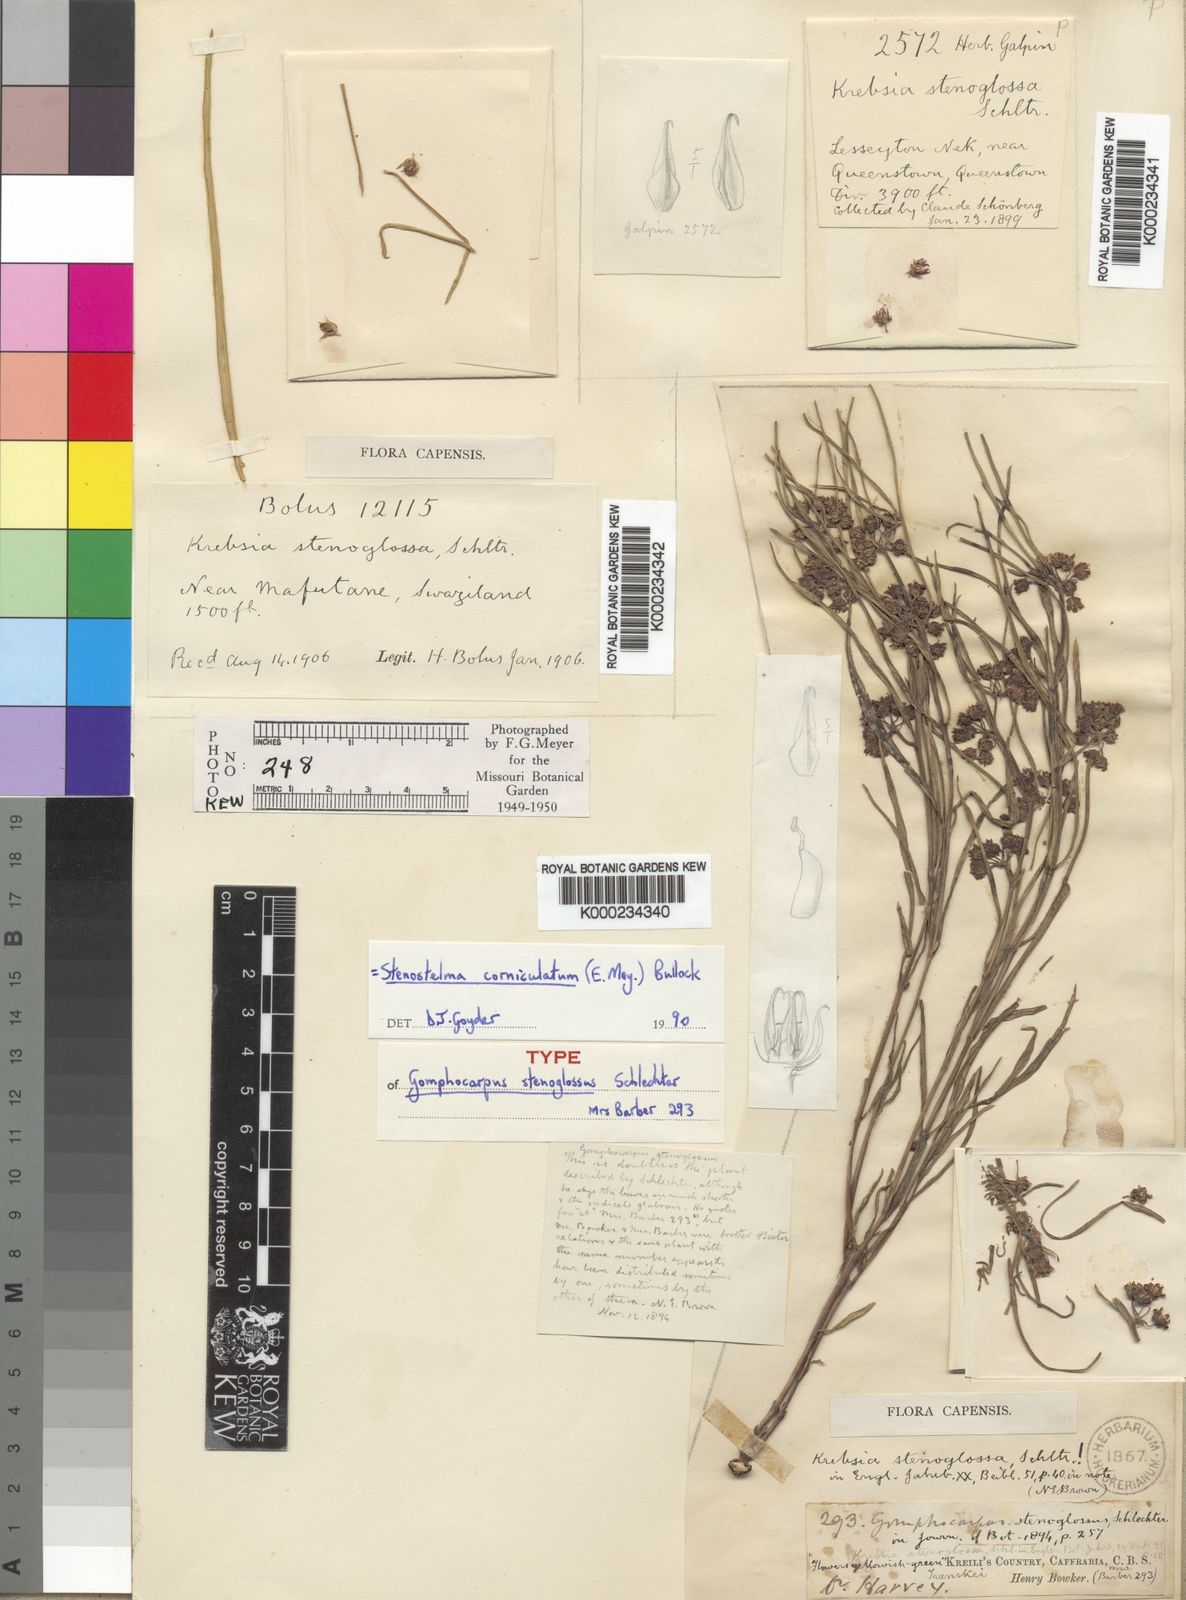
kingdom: Plantae
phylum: Tracheophyta
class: Magnoliopsida
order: Gentianales
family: Apocynaceae
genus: Stenostelma
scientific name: Stenostelma corniculatum
